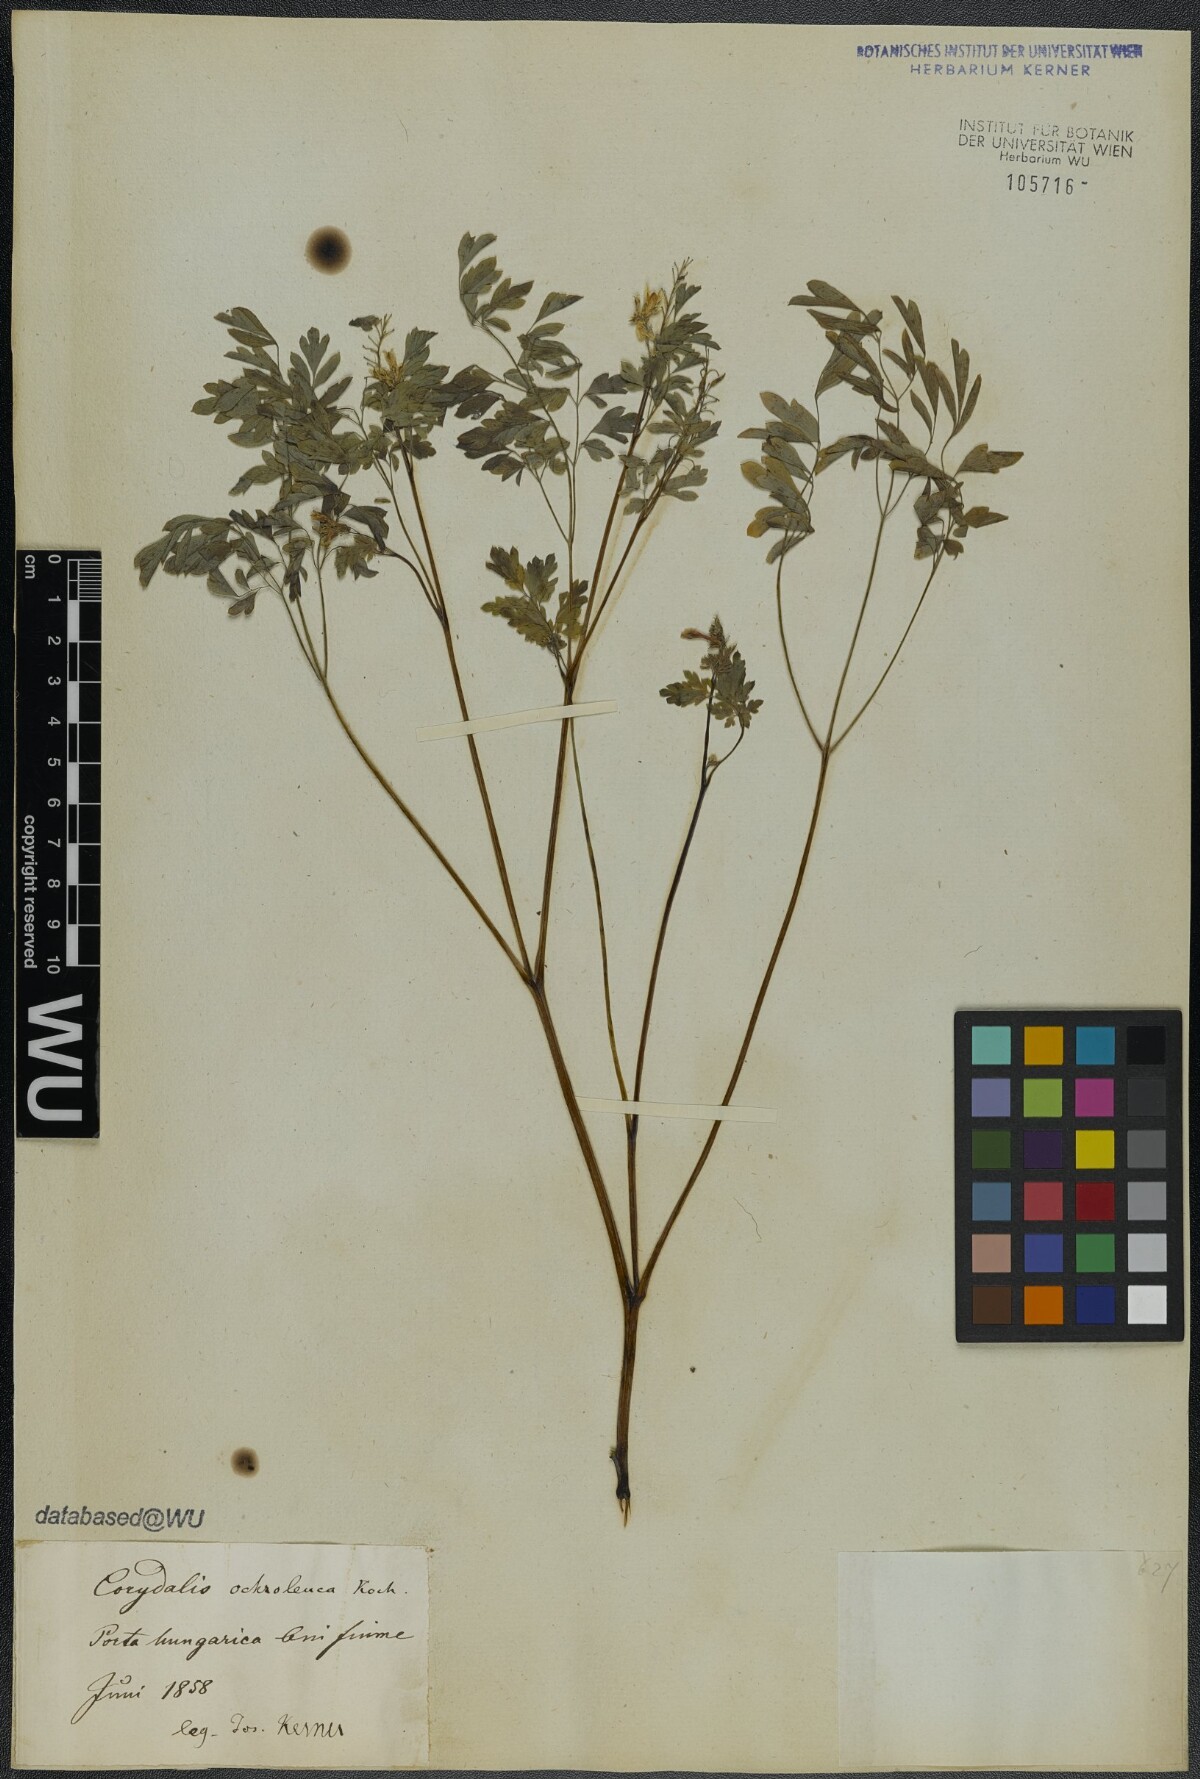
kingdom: Plantae
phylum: Tracheophyta
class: Magnoliopsida
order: Ranunculales
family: Papaveraceae
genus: Pseudofumaria
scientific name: Pseudofumaria alba
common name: Pale corydalis
